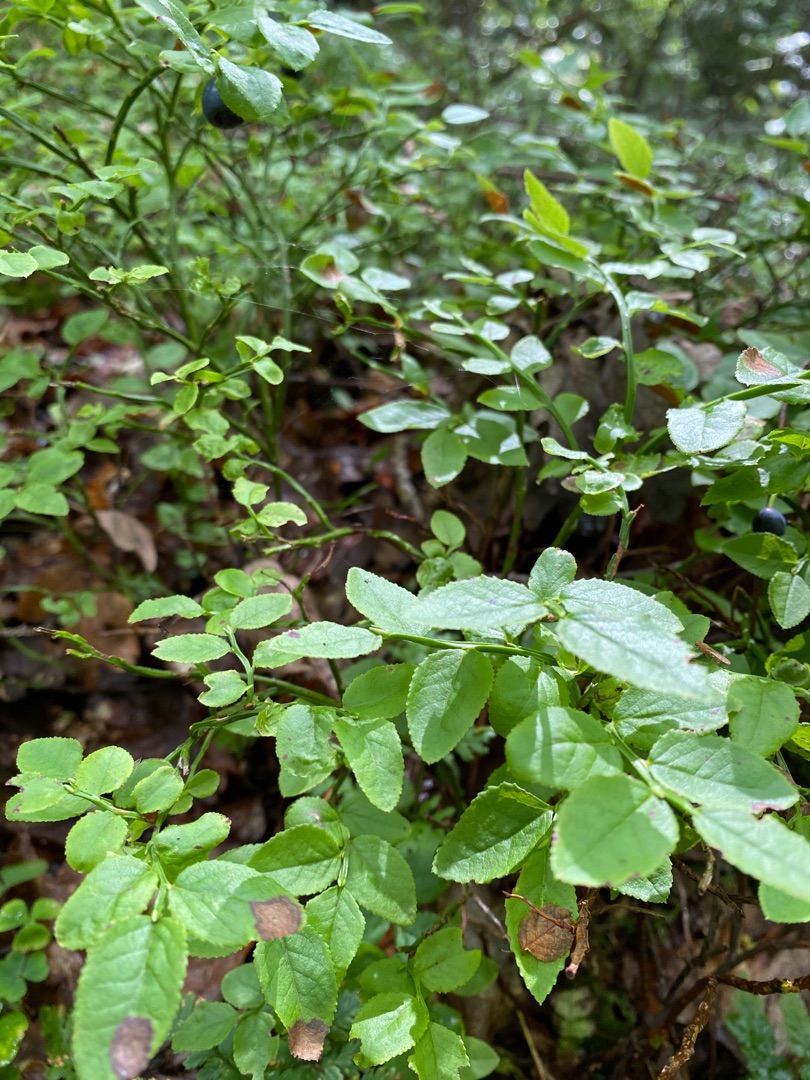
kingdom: Plantae
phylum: Tracheophyta
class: Magnoliopsida
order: Ericales
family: Ericaceae
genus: Vaccinium
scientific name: Vaccinium myrtillus
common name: Blåbær
